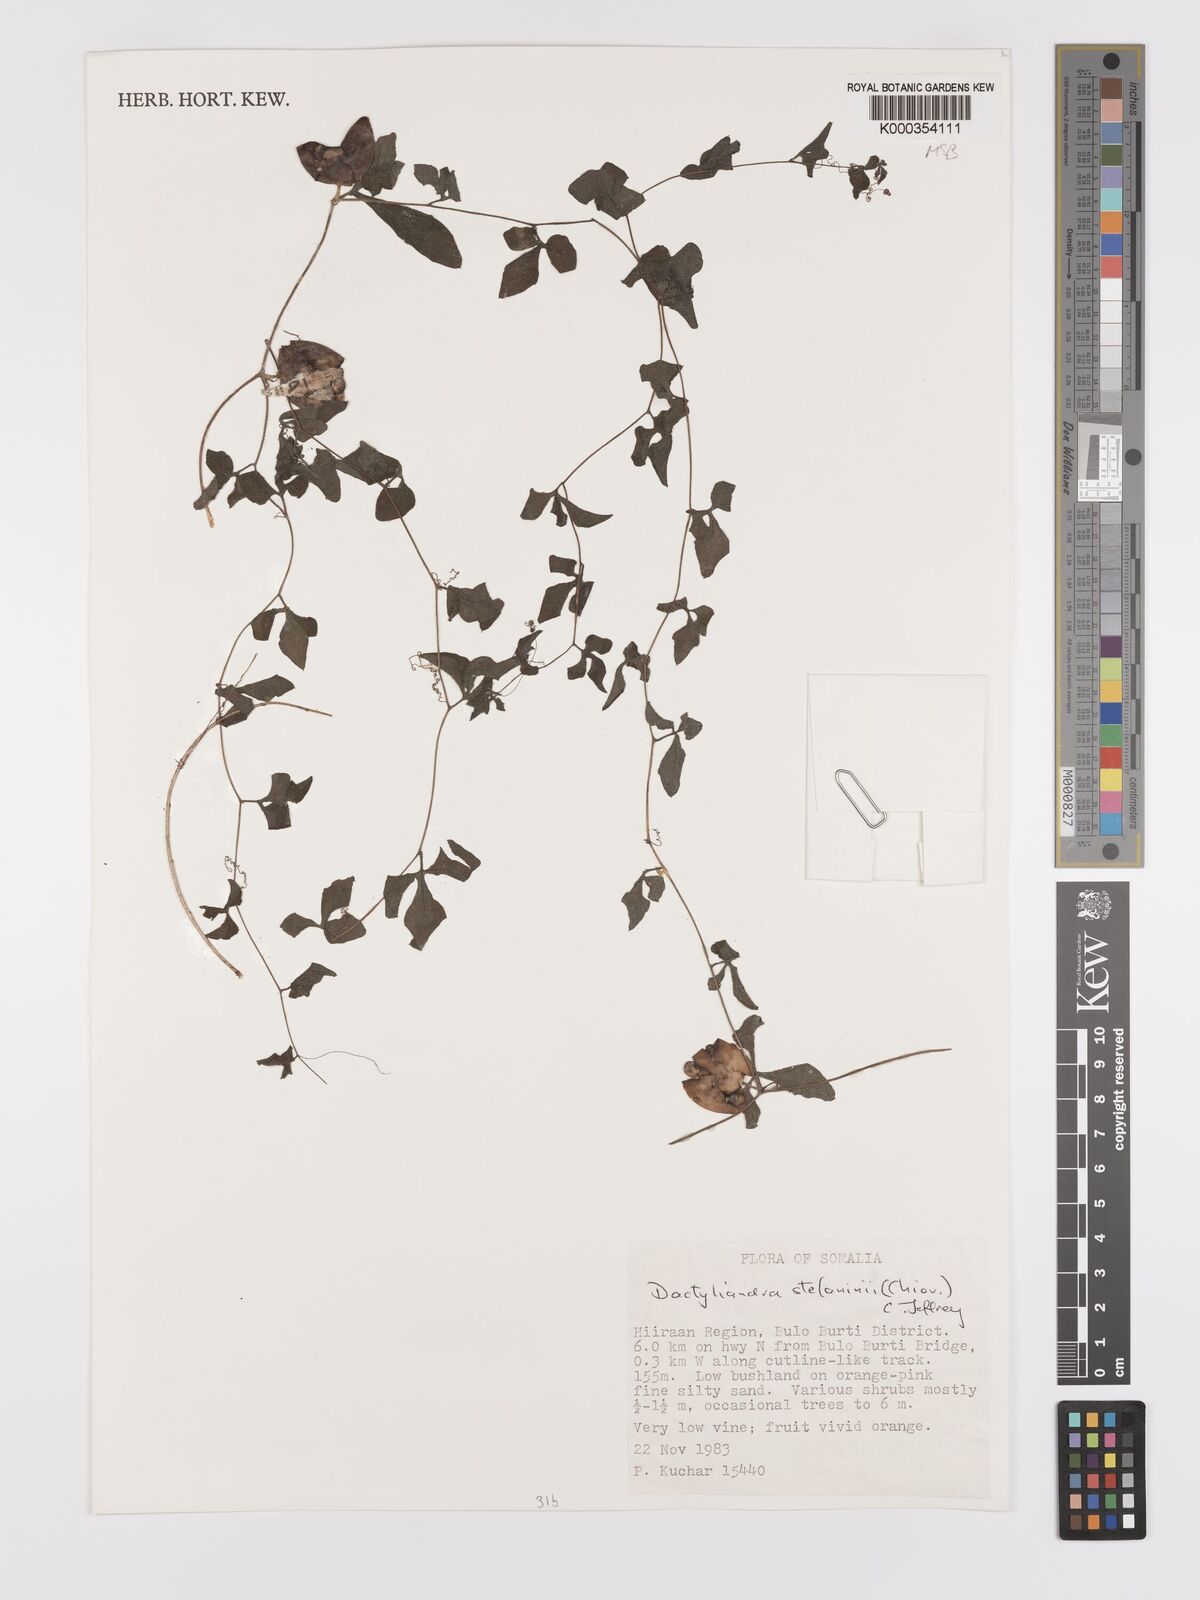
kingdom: Plantae
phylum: Tracheophyta
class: Magnoliopsida
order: Cucurbitales
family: Cucurbitaceae
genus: Dactyliandra
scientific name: Dactyliandra stefaninii
